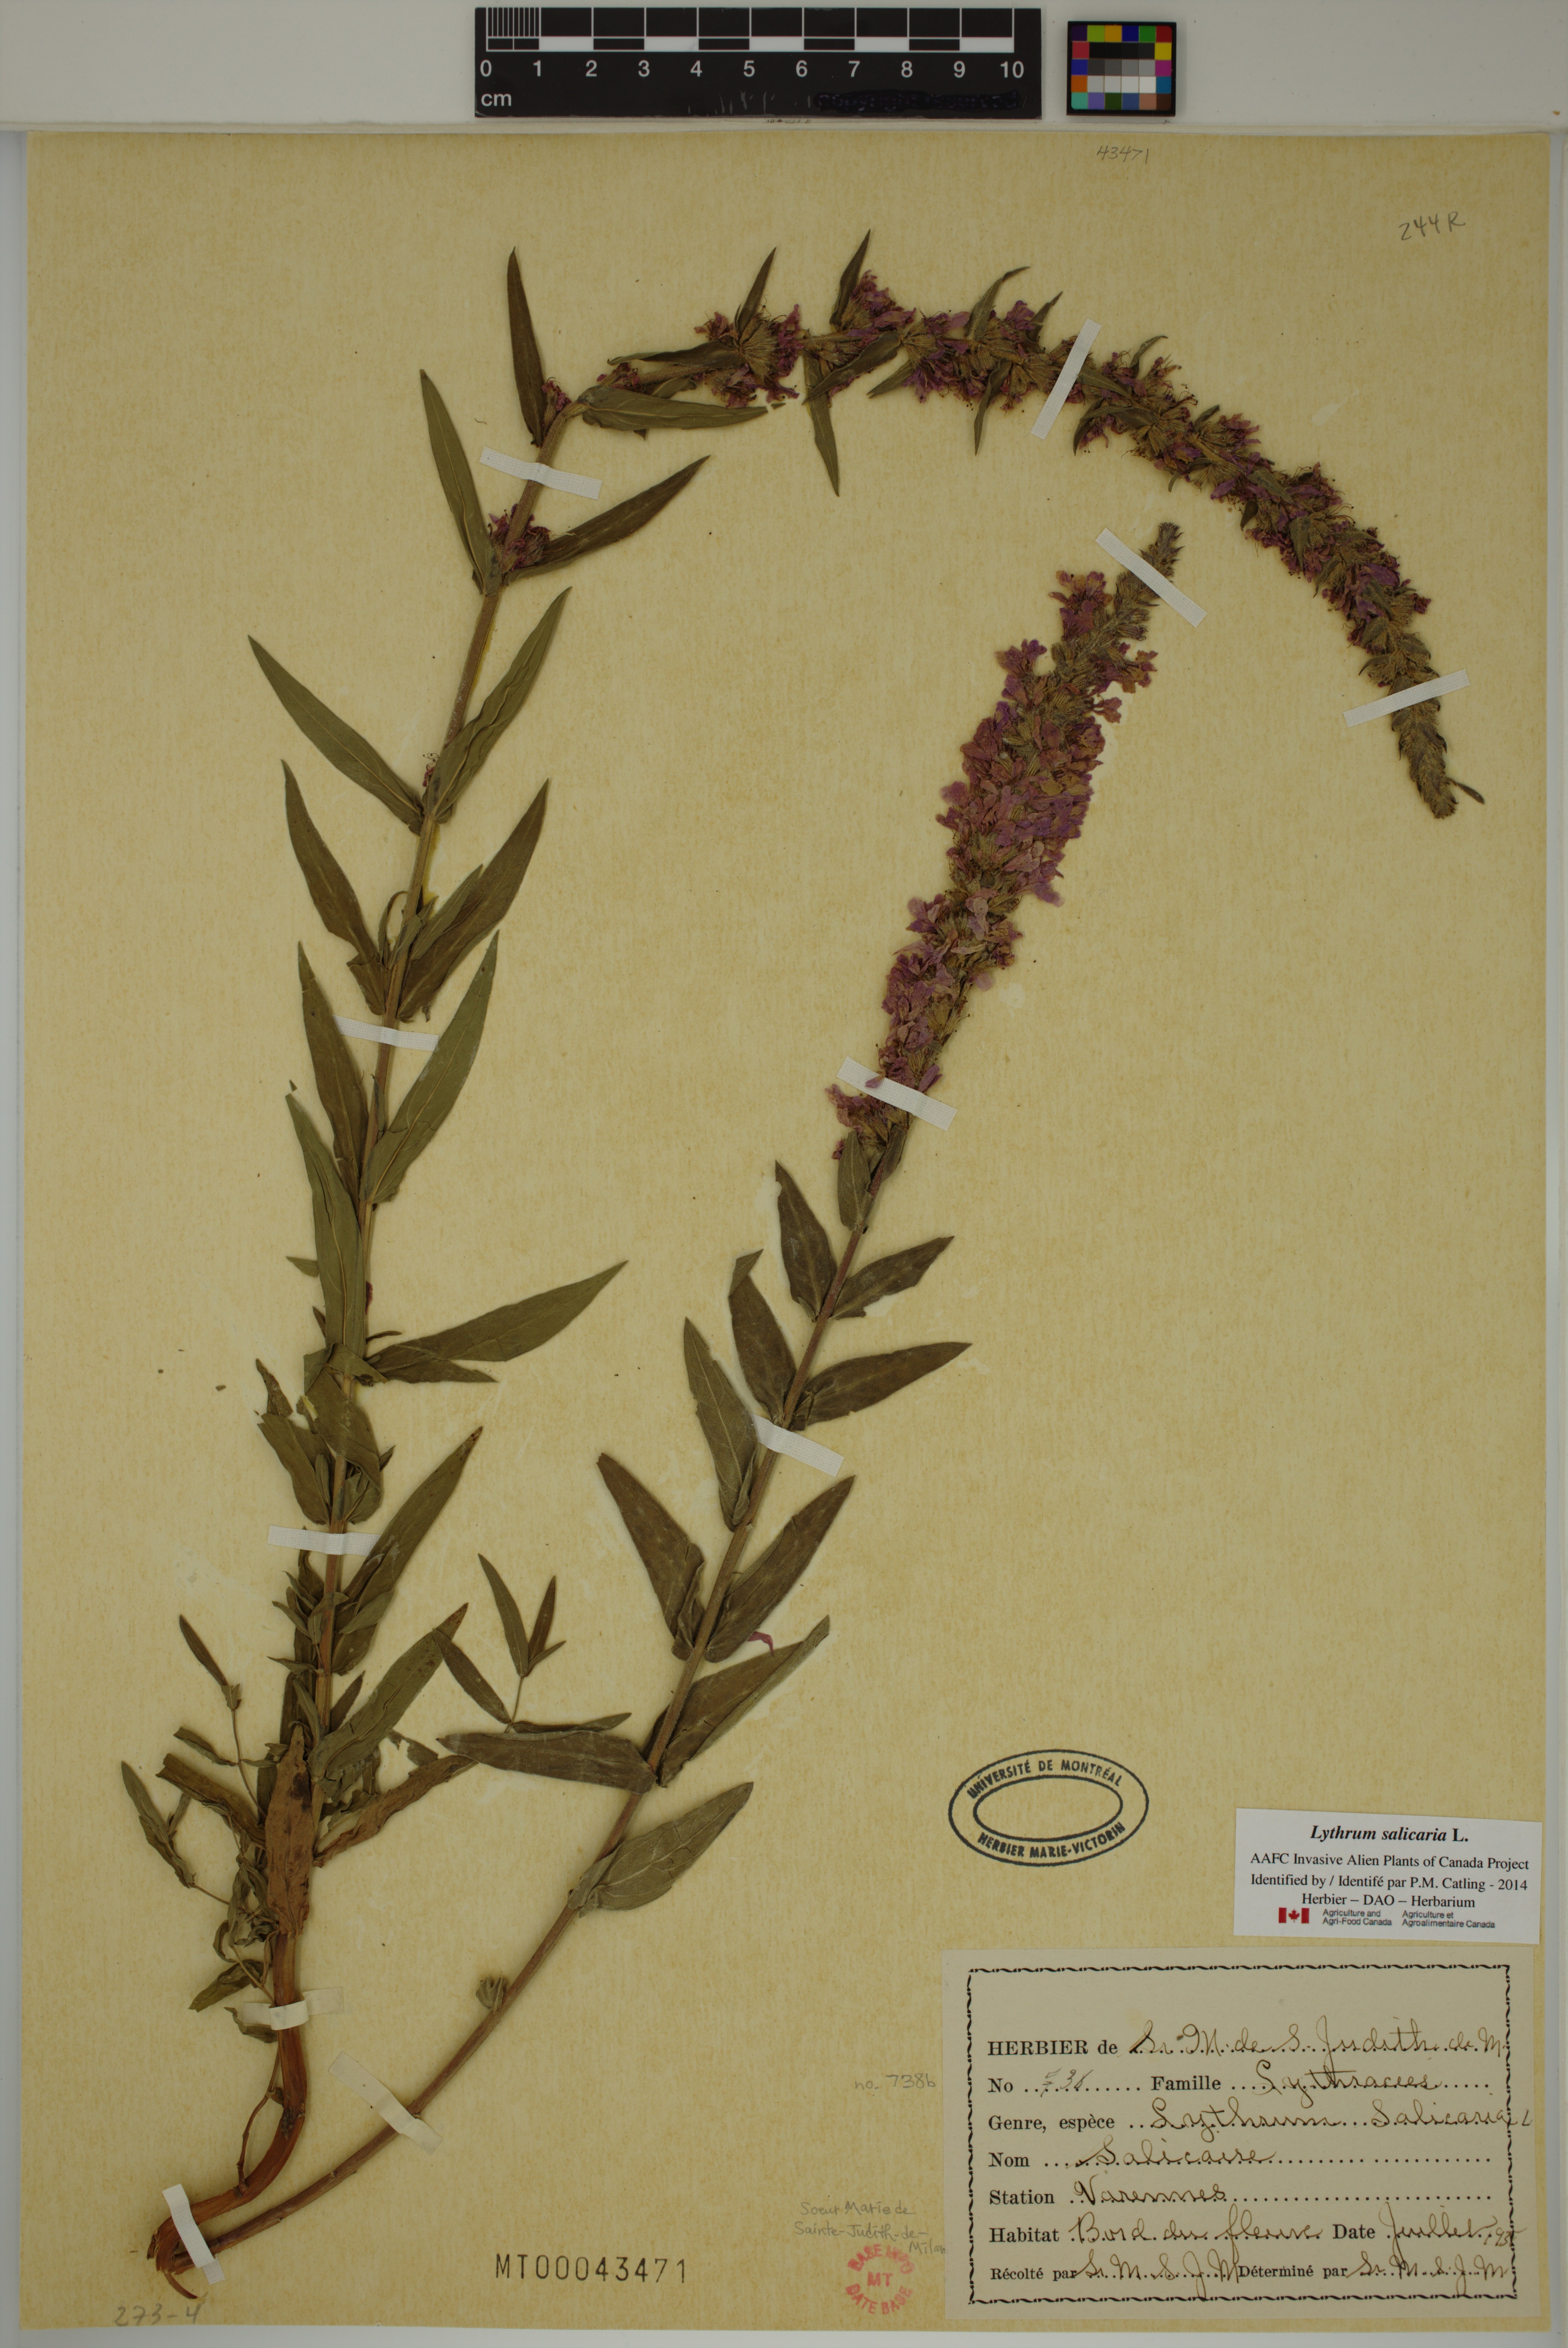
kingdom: Plantae
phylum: Tracheophyta
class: Magnoliopsida
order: Myrtales
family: Lythraceae
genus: Lythrum
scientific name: Lythrum salicaria
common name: Purple loosestrife
